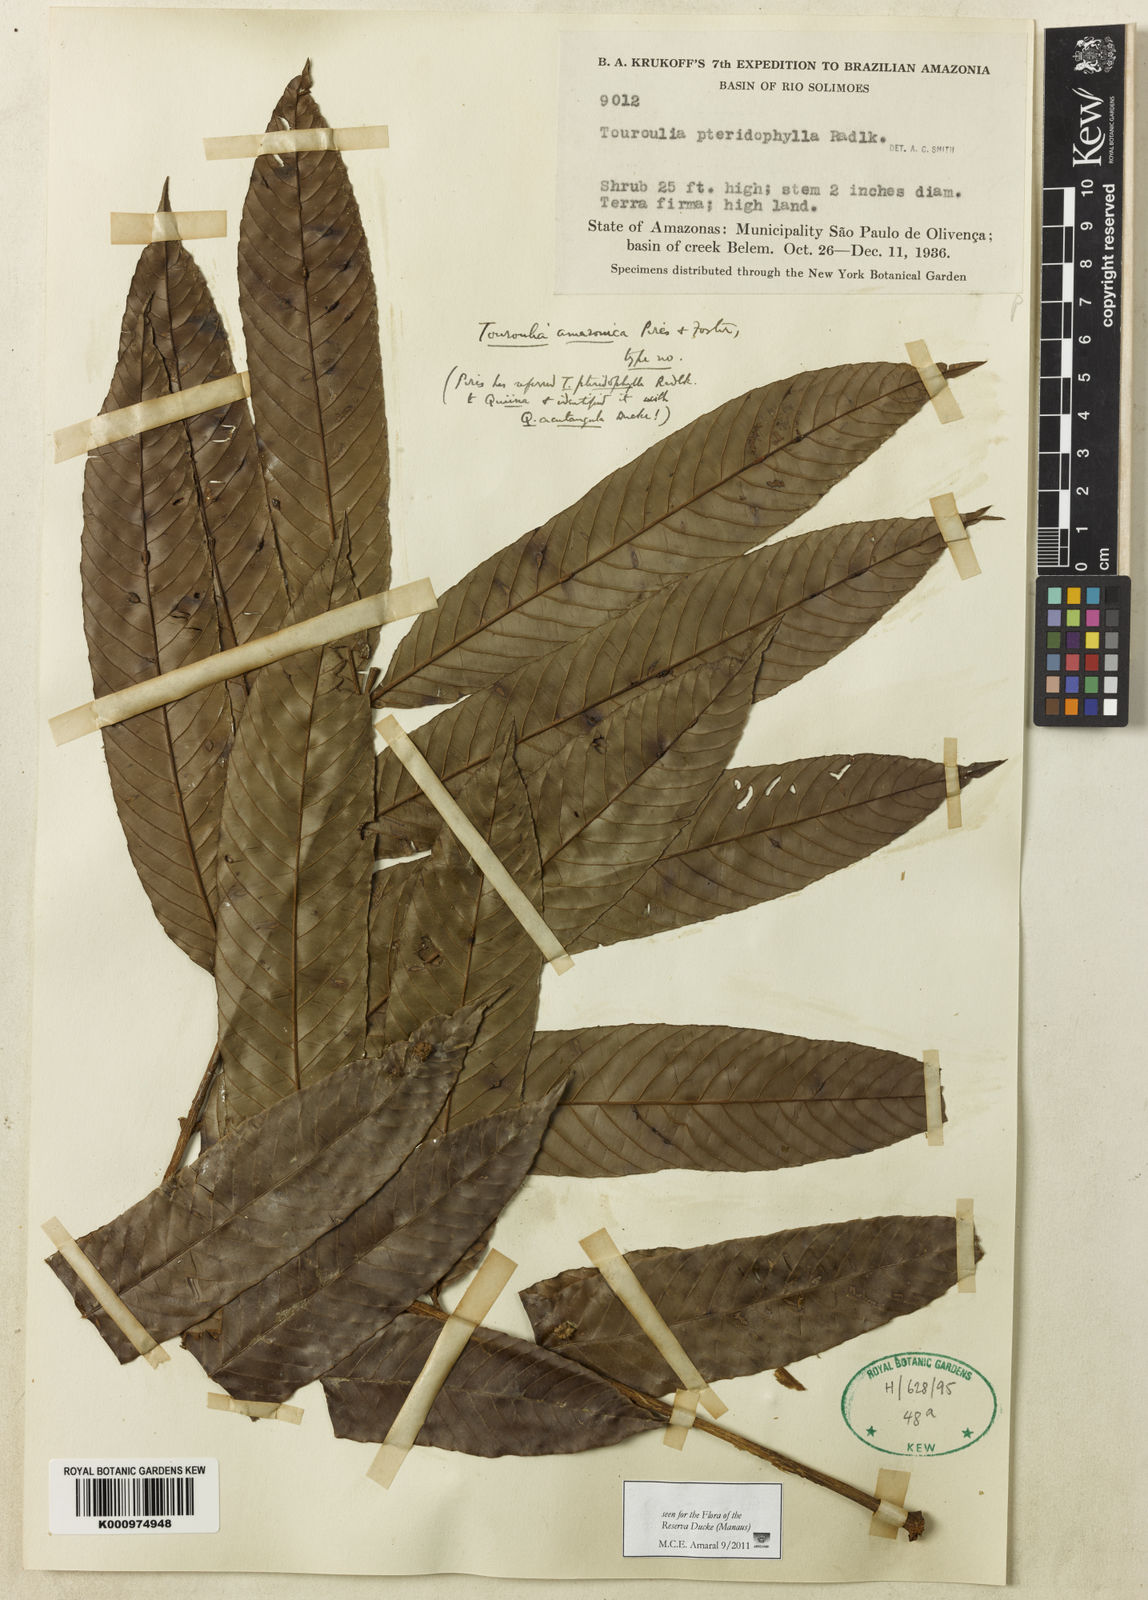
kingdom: Plantae
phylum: Tracheophyta
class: Magnoliopsida
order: Malpighiales
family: Quiinaceae
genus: Touroulia
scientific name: Touroulia amazonica
